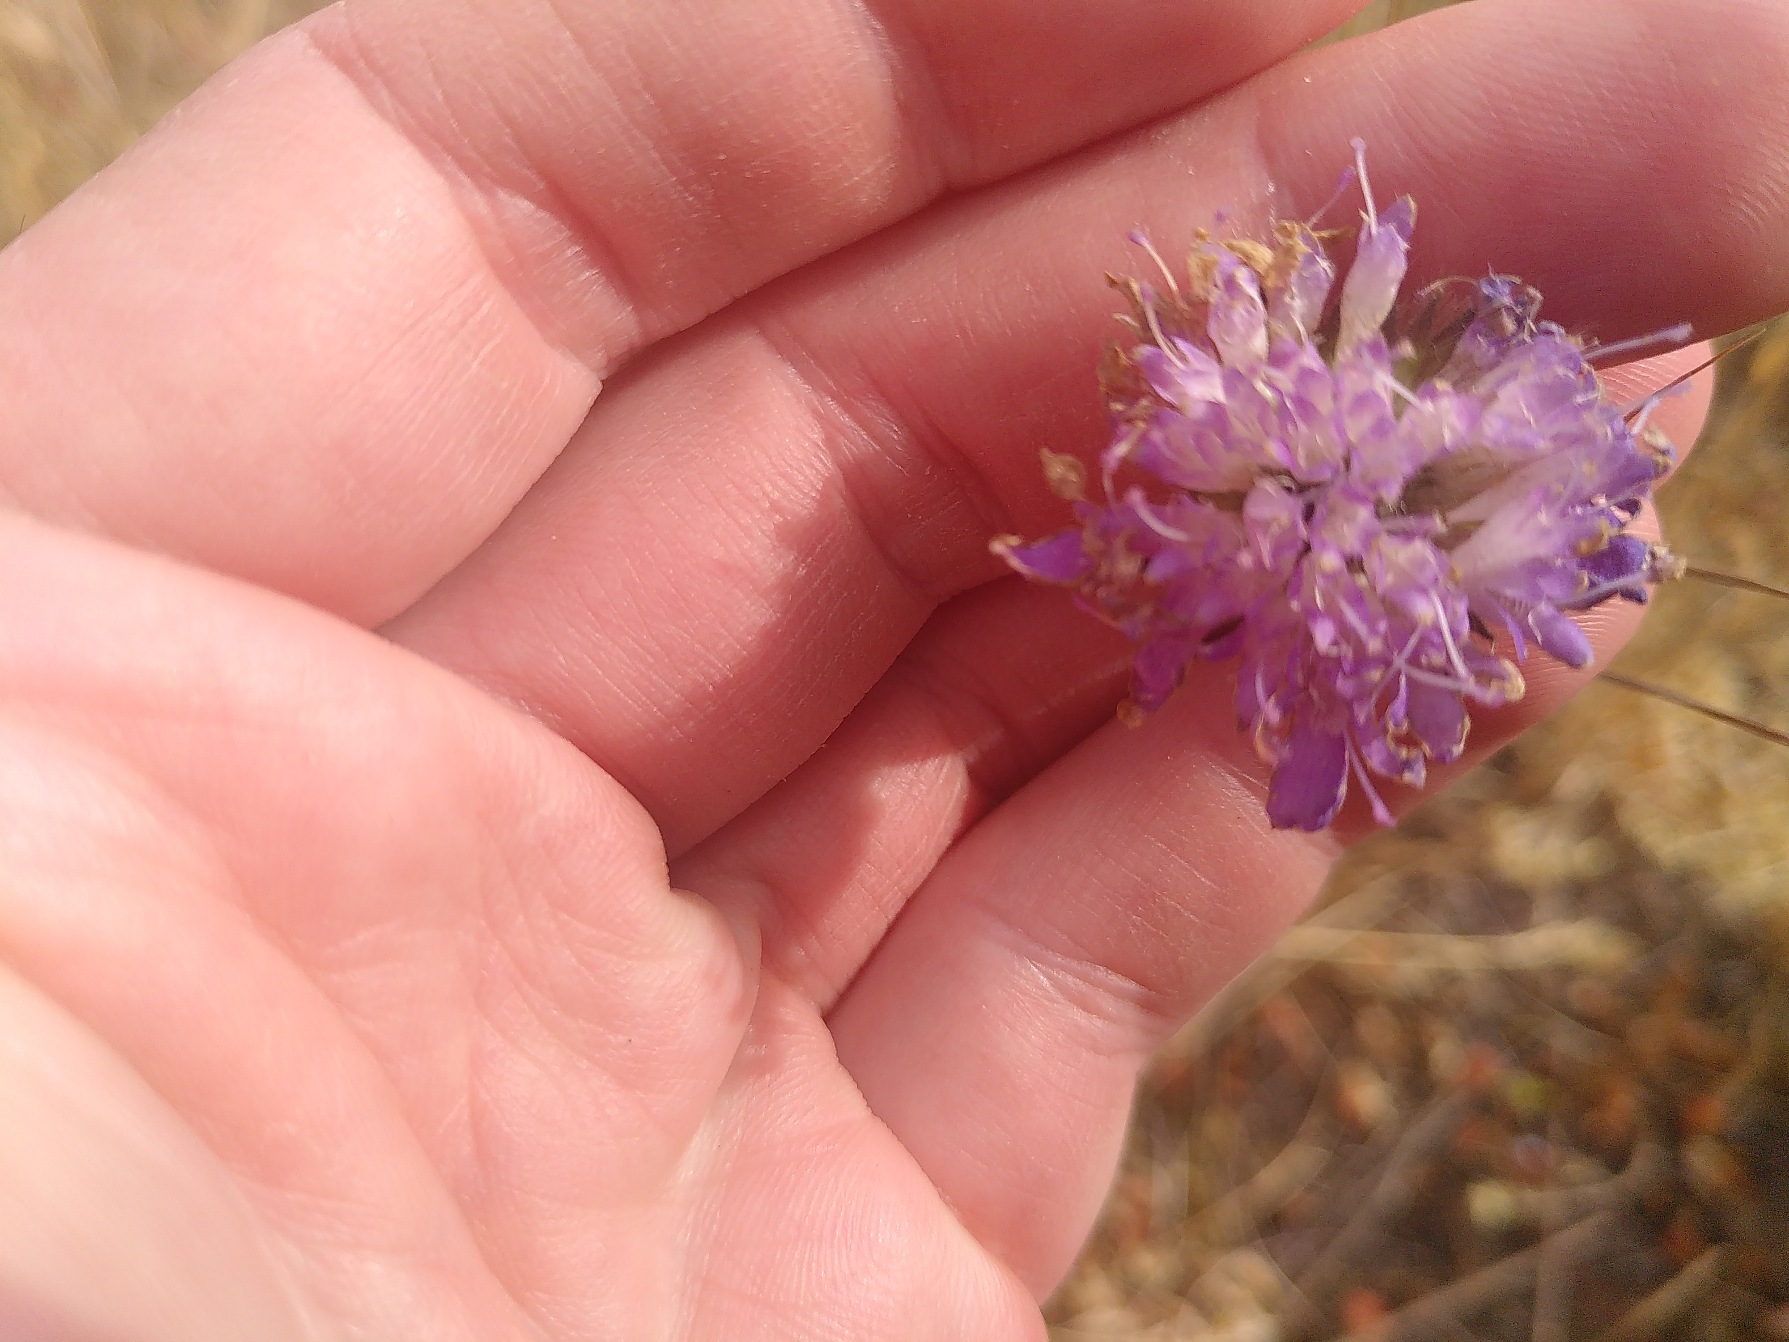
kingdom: Plantae
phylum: Tracheophyta
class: Magnoliopsida
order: Dipsacales
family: Caprifoliaceae
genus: Knautia
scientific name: Knautia arvensis
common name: Blåhat
